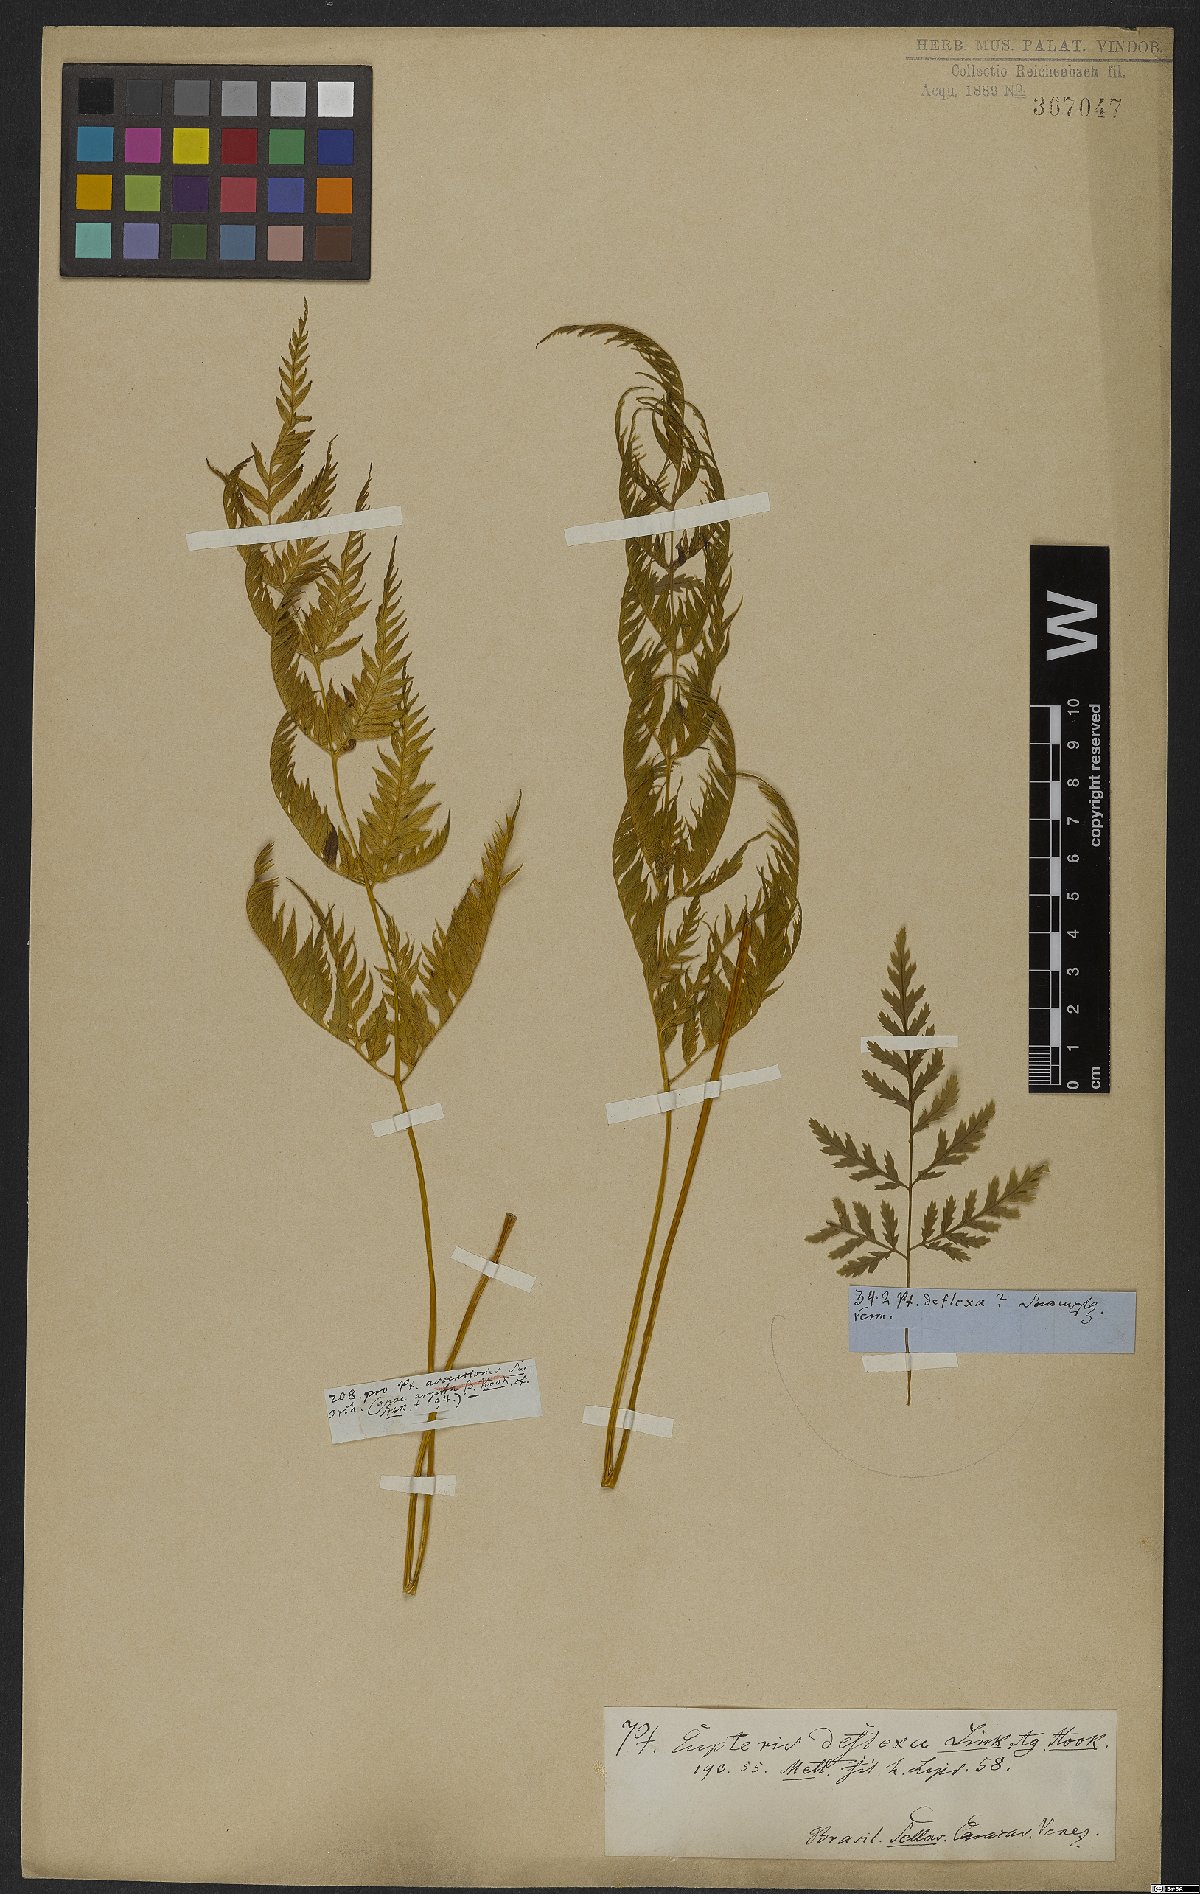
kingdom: Plantae
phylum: Tracheophyta
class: Polypodiopsida
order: Polypodiales
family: Pteridaceae
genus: Pteris
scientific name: Pteris deflexa
